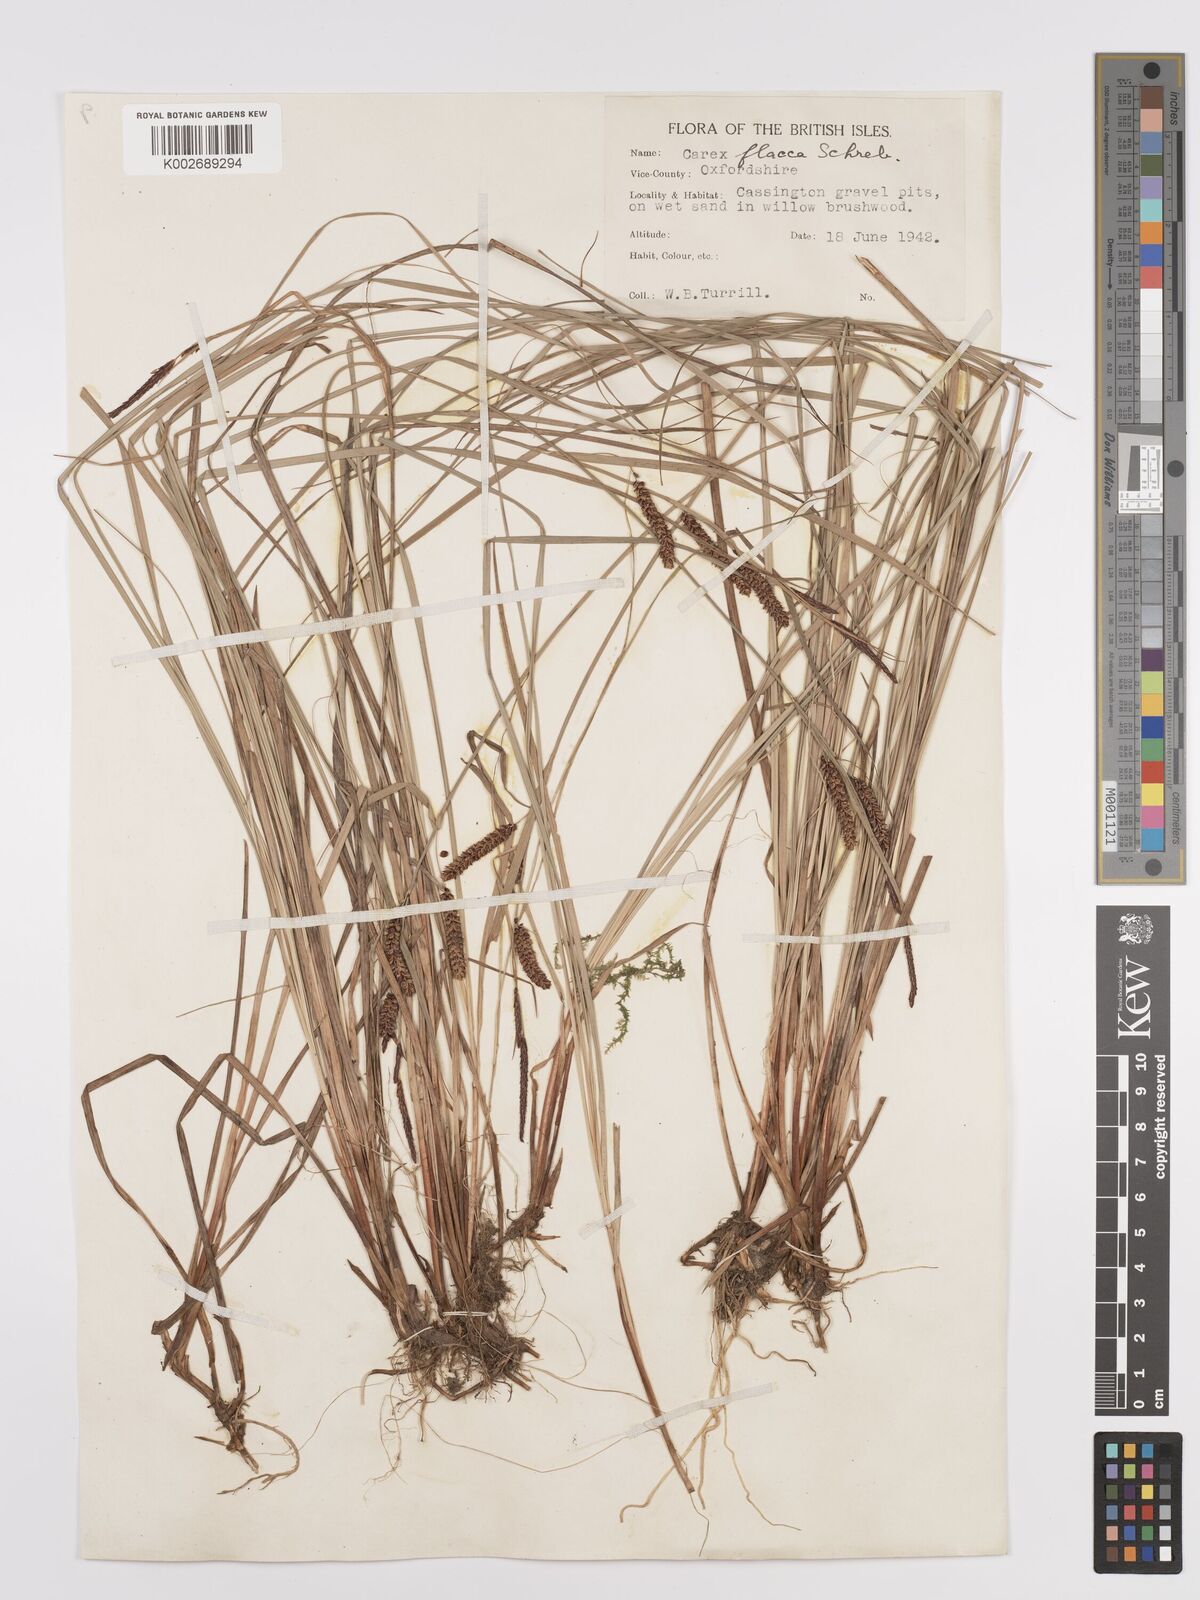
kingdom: Plantae
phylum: Tracheophyta
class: Liliopsida
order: Poales
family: Cyperaceae
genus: Carex
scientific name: Carex flacca
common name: Glaucous sedge
